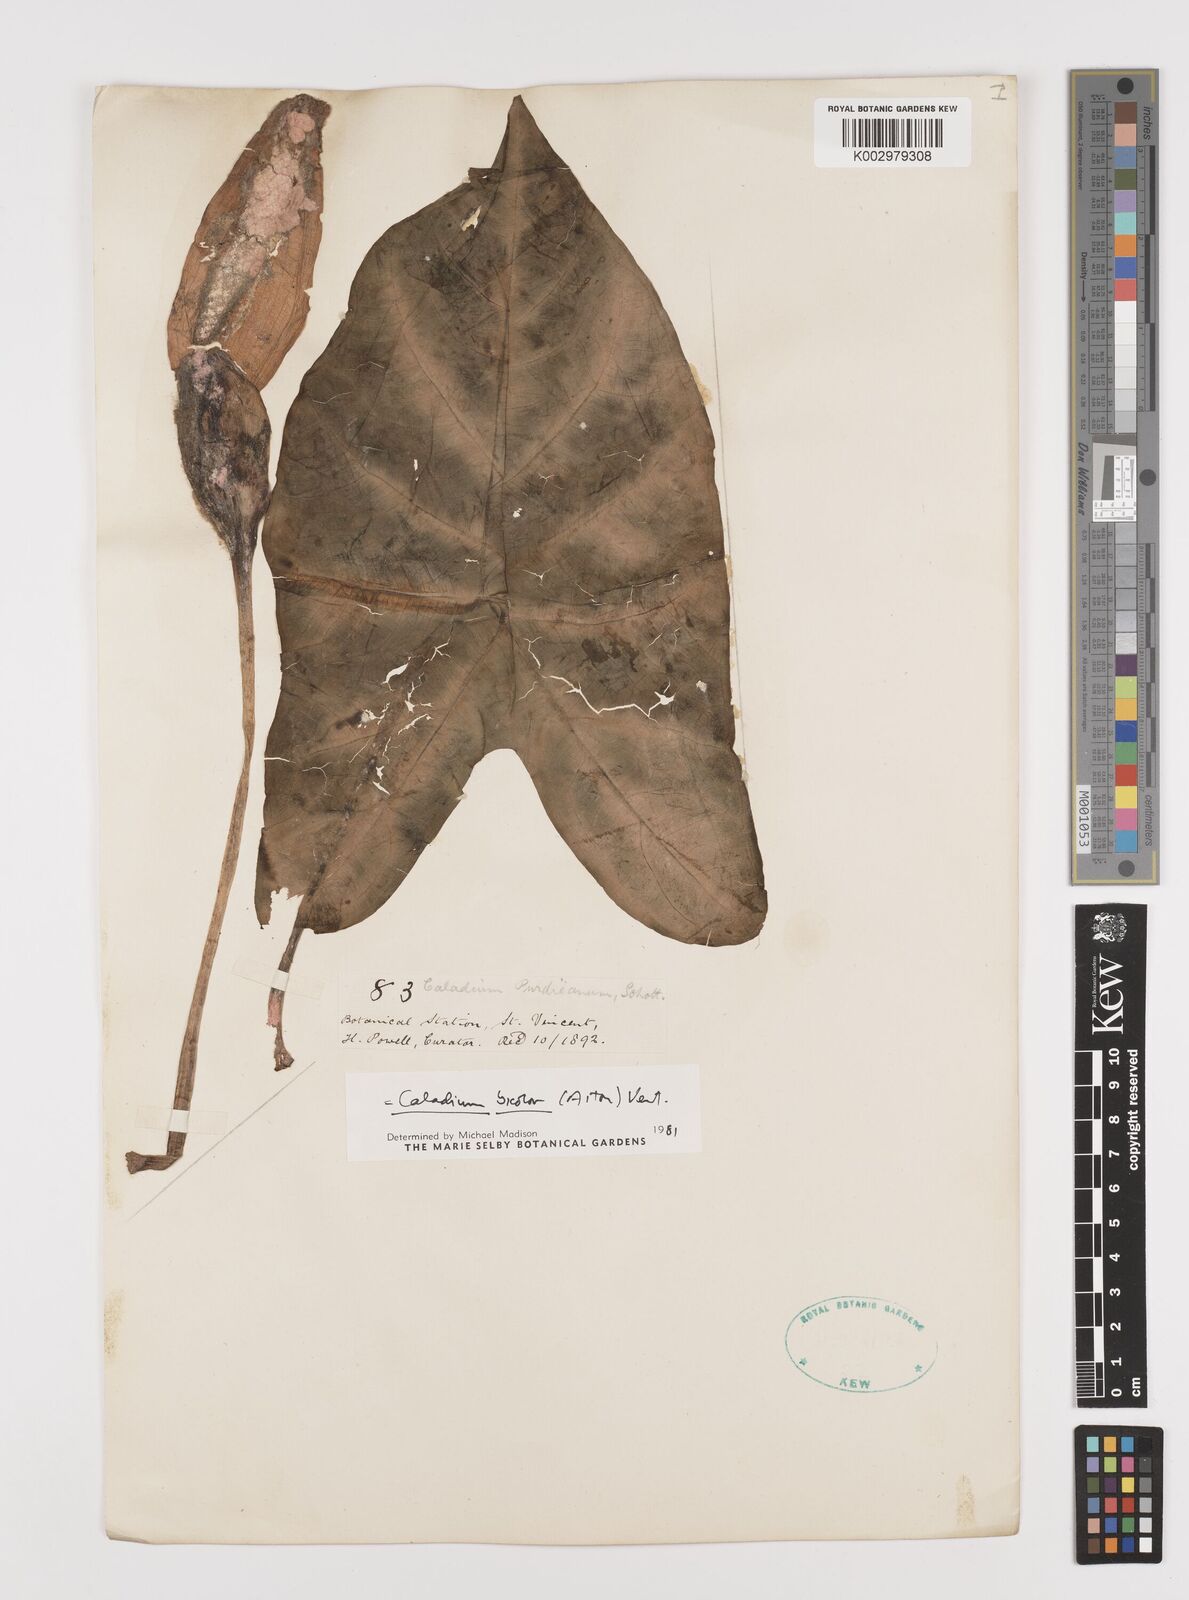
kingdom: Plantae
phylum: Tracheophyta
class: Liliopsida
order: Alismatales
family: Araceae
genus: Caladium
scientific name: Caladium bicolor
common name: Artist's pallet
